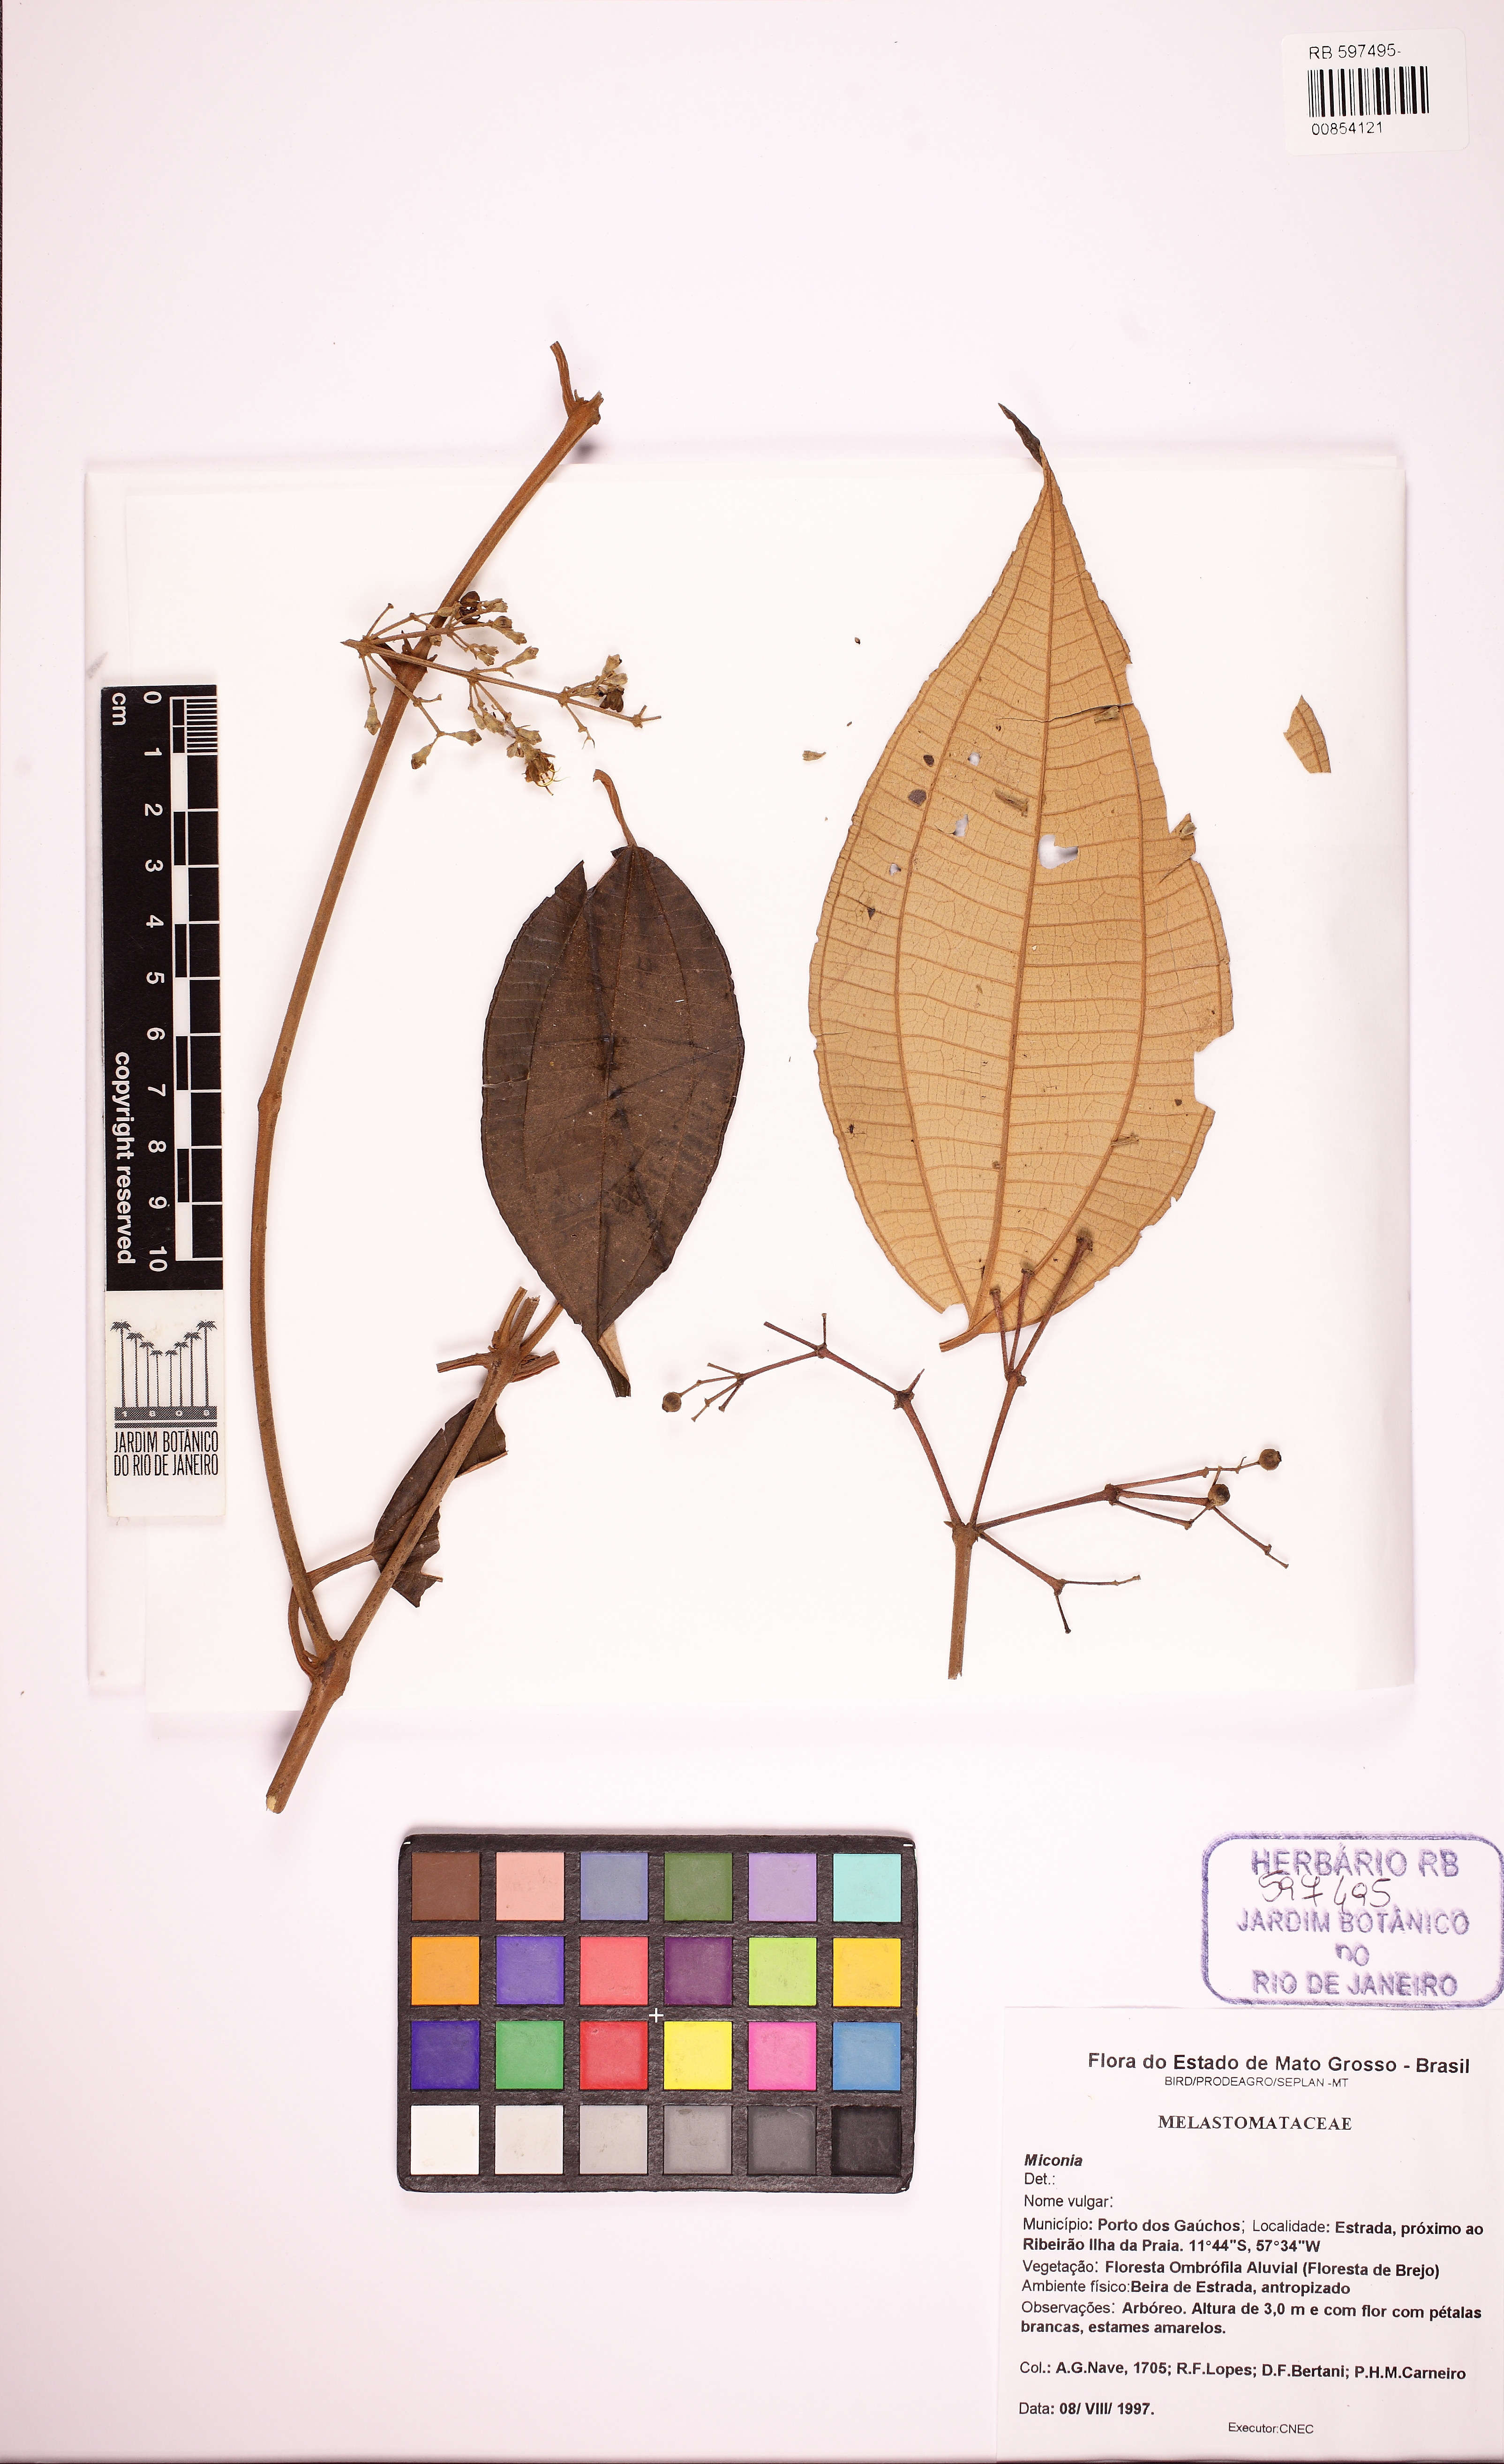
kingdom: Plantae
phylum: Tracheophyta
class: Magnoliopsida
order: Myrtales
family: Melastomataceae
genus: Miconia
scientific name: Miconia
